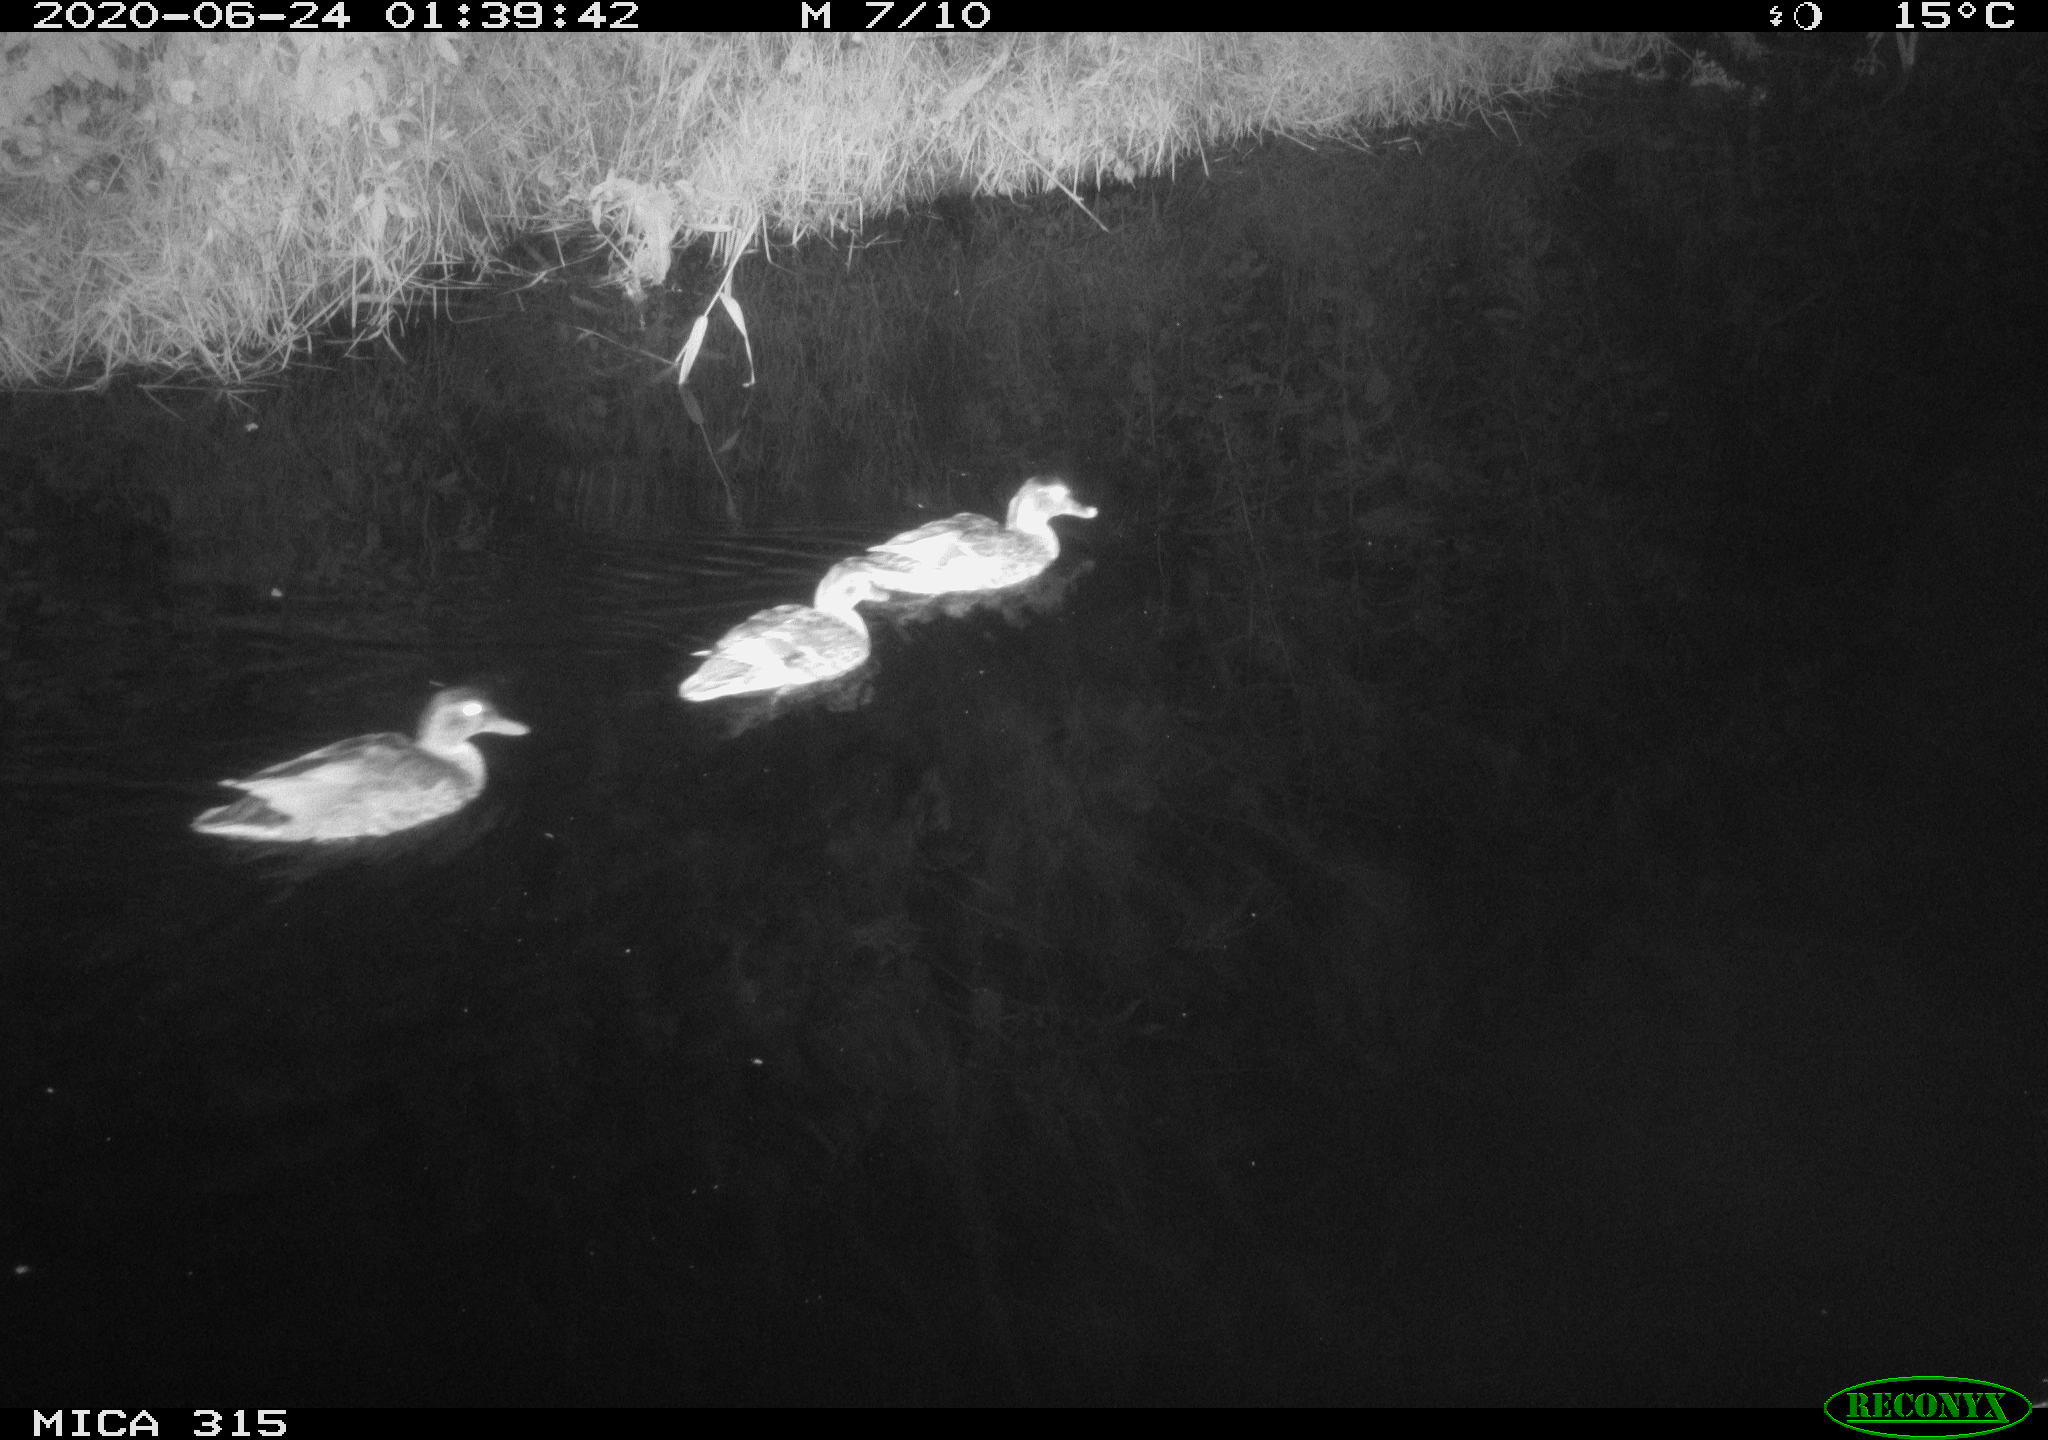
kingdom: Animalia
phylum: Chordata
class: Aves
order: Anseriformes
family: Anatidae
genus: Anas
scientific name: Anas platyrhynchos
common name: Mallard
